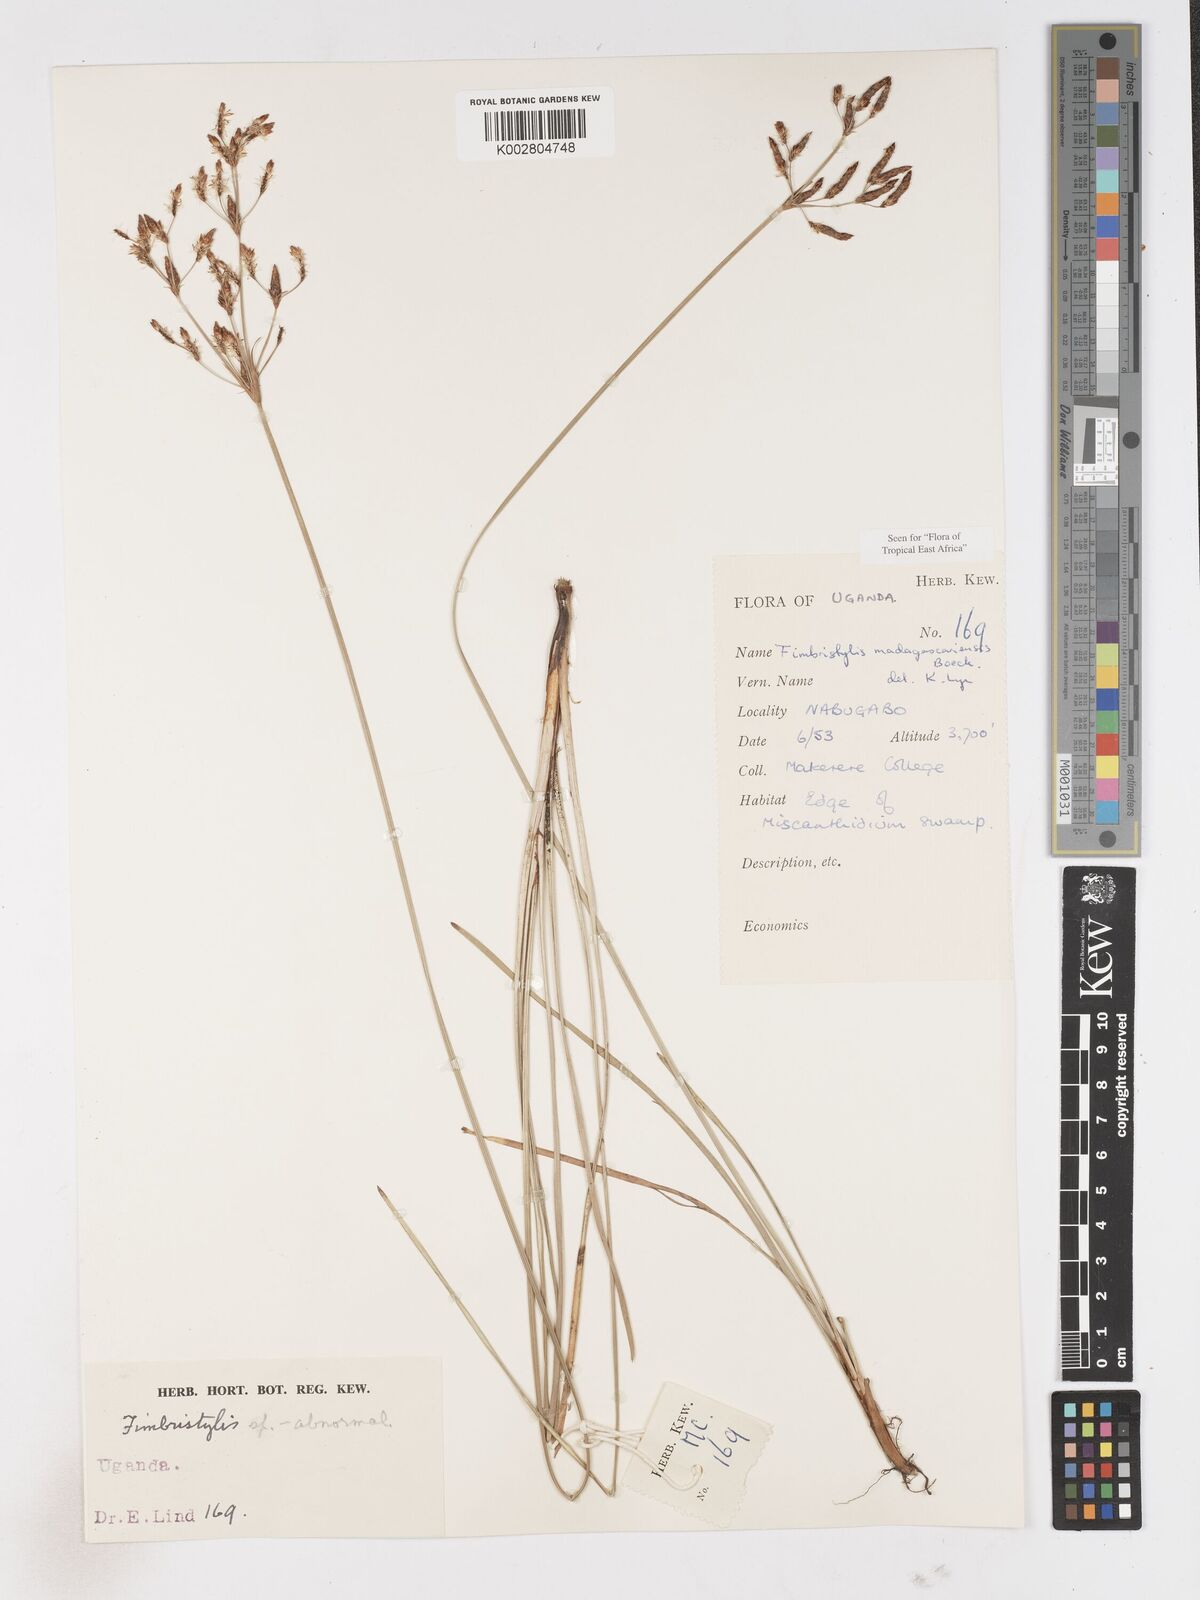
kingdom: Plantae
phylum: Tracheophyta
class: Liliopsida
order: Poales
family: Cyperaceae
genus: Fimbristylis
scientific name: Fimbristylis madagascariensis
